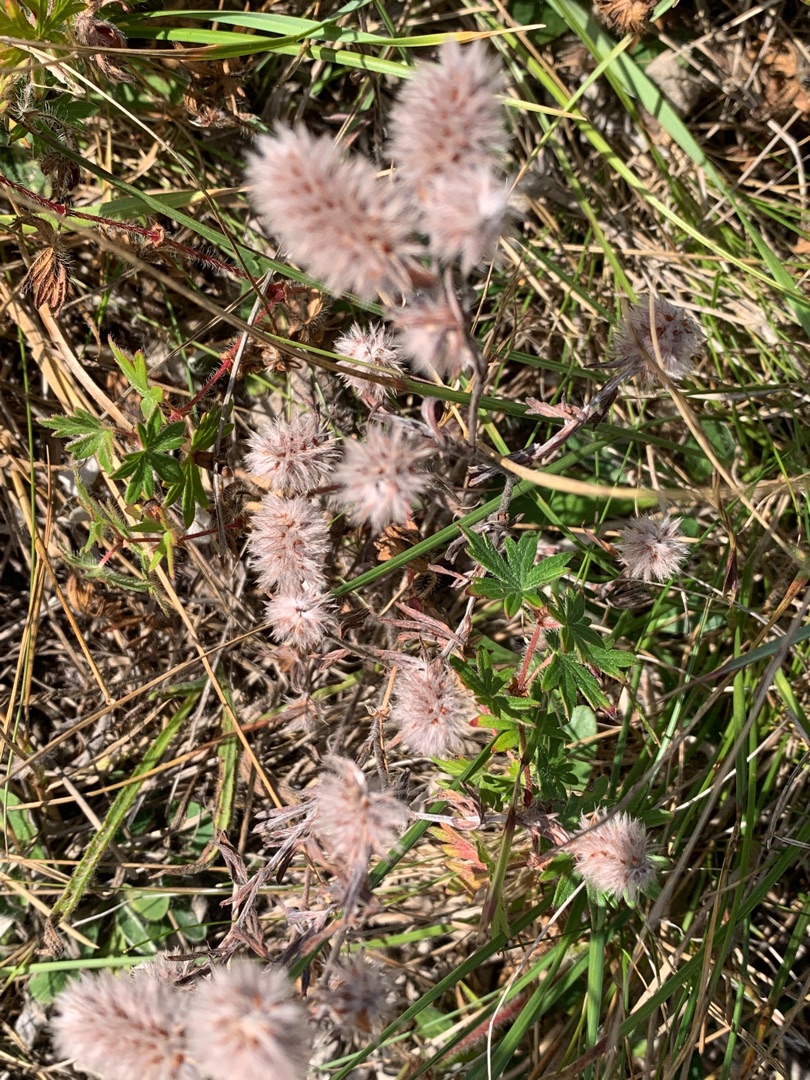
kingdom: Plantae
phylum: Tracheophyta
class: Magnoliopsida
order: Fabales
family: Fabaceae
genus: Trifolium
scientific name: Trifolium arvense
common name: Hare-kløver
